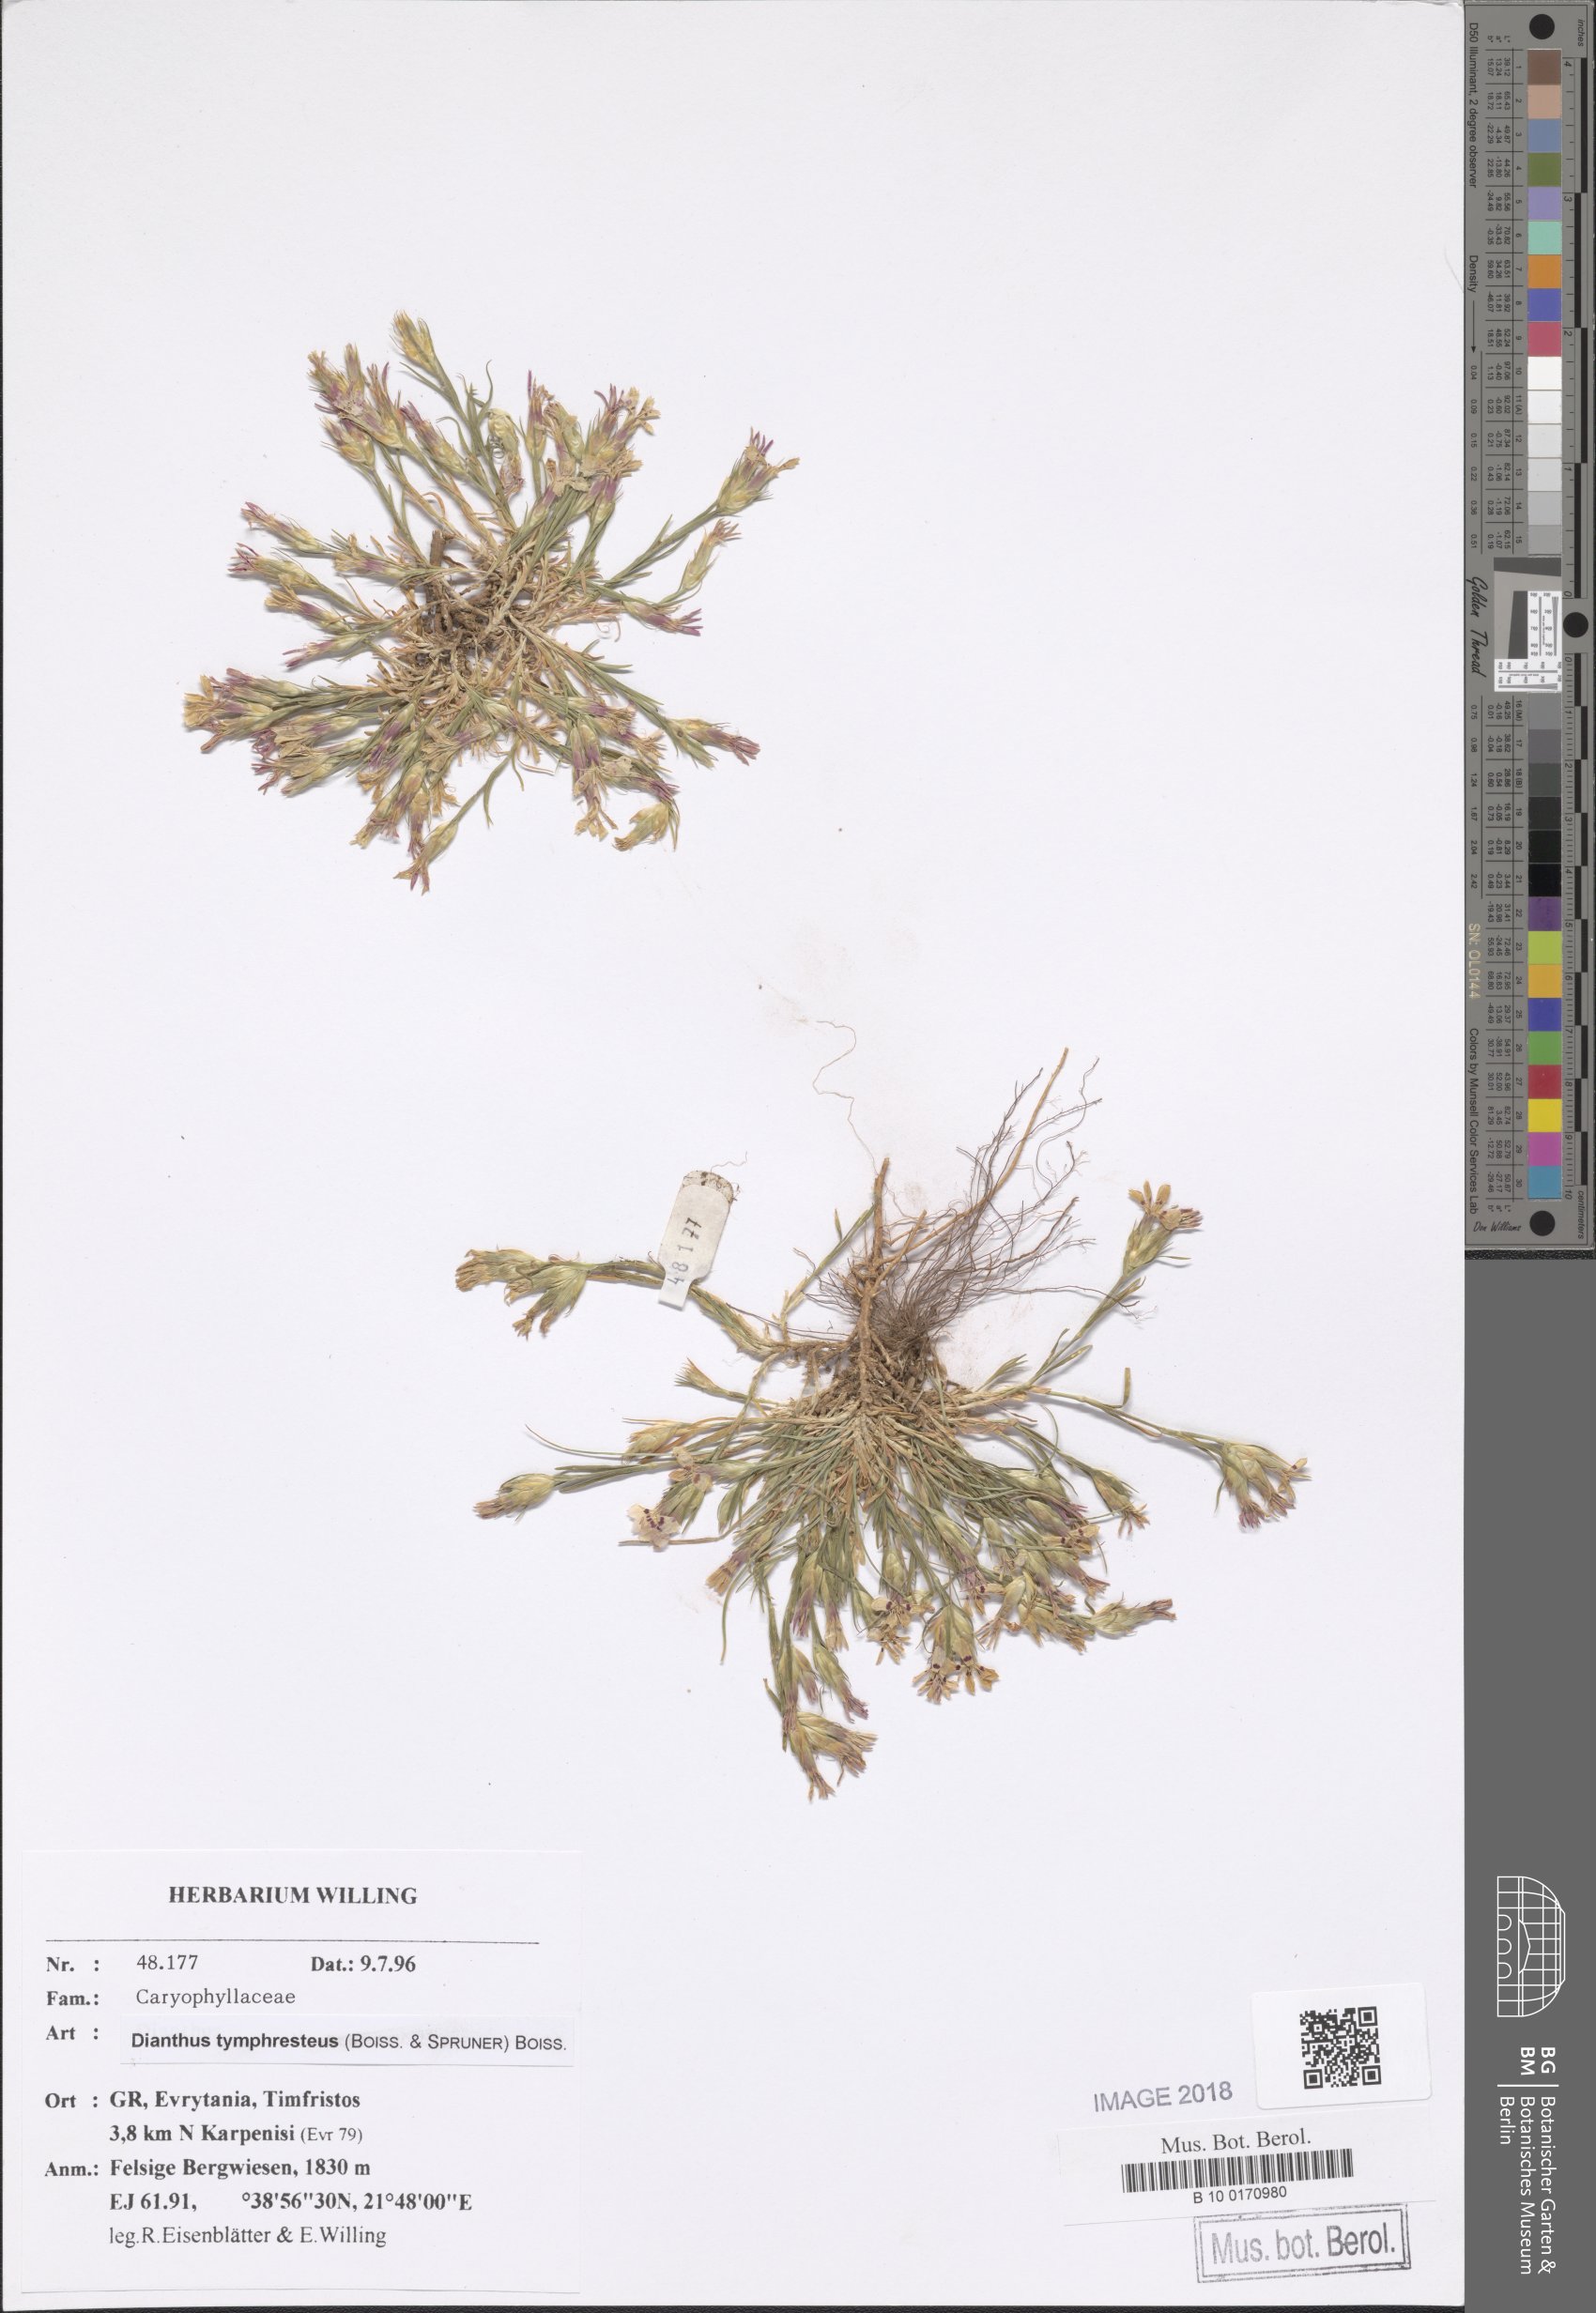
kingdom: Plantae
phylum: Tracheophyta
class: Magnoliopsida
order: Caryophyllales
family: Caryophyllaceae
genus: Dianthus
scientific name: Dianthus tymphresteus
